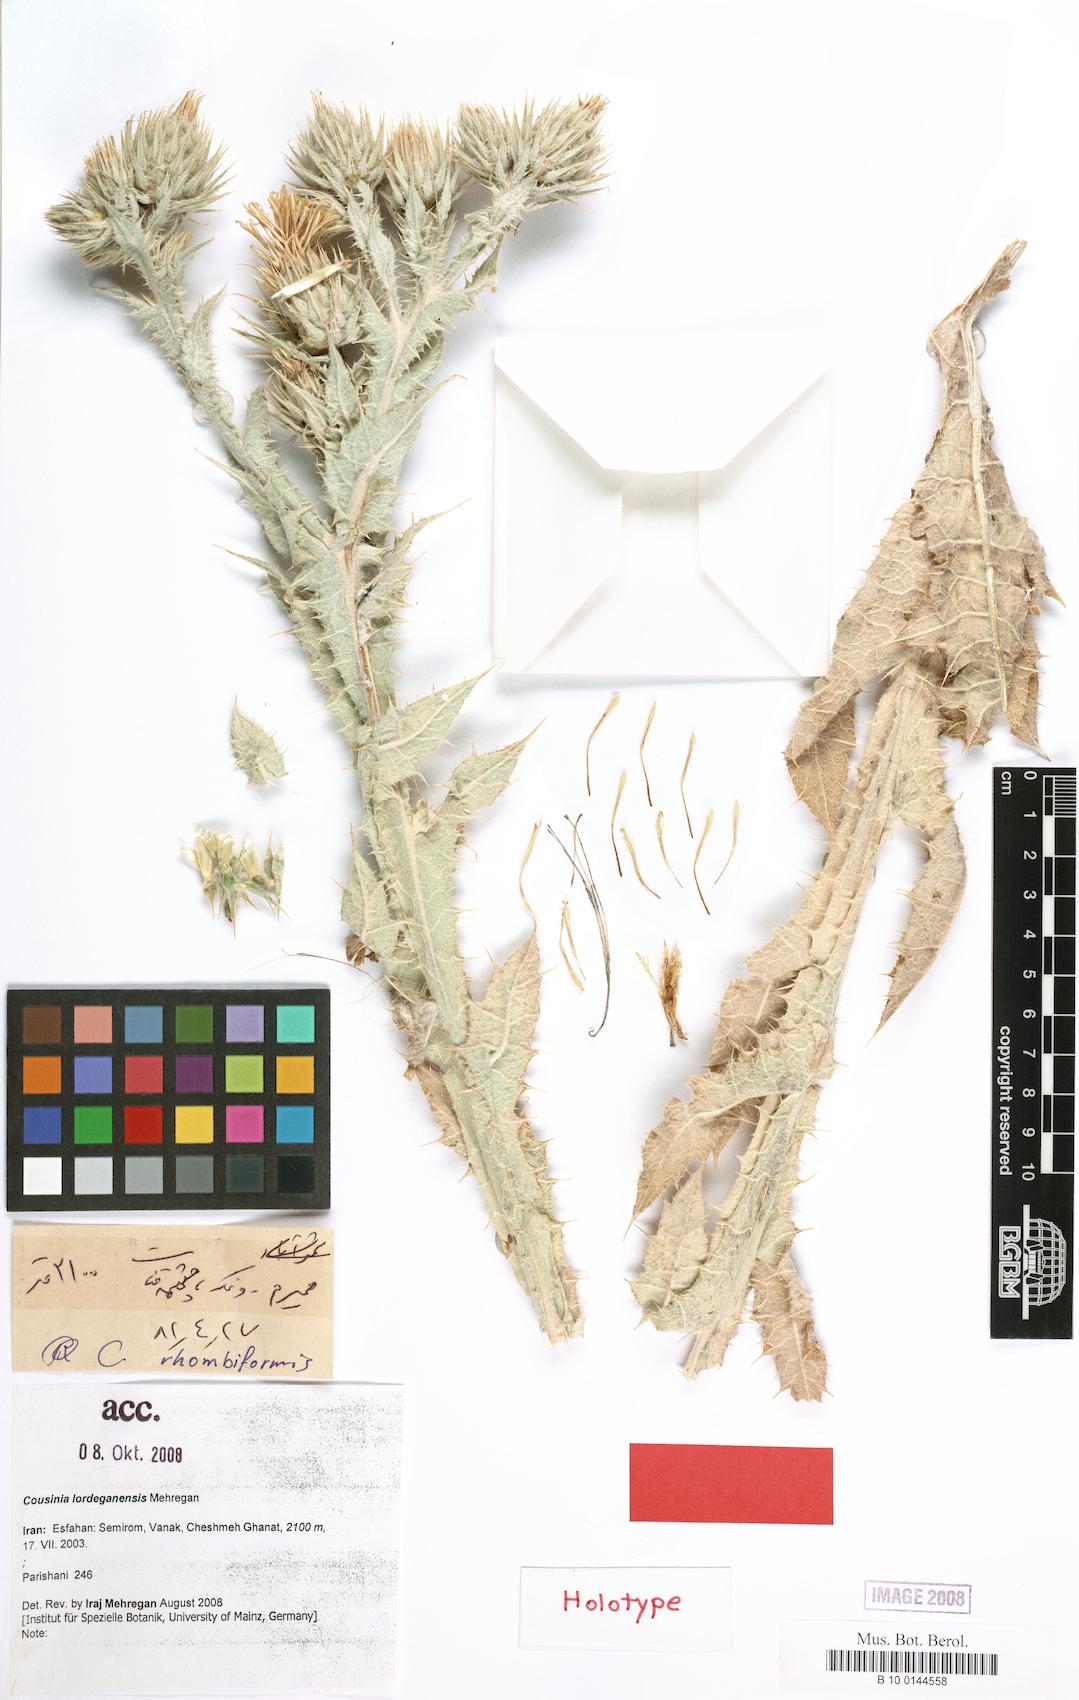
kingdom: Plantae
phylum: Tracheophyta
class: Magnoliopsida
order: Asterales
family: Asteraceae
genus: Cousinia
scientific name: Cousinia lordeganensis
